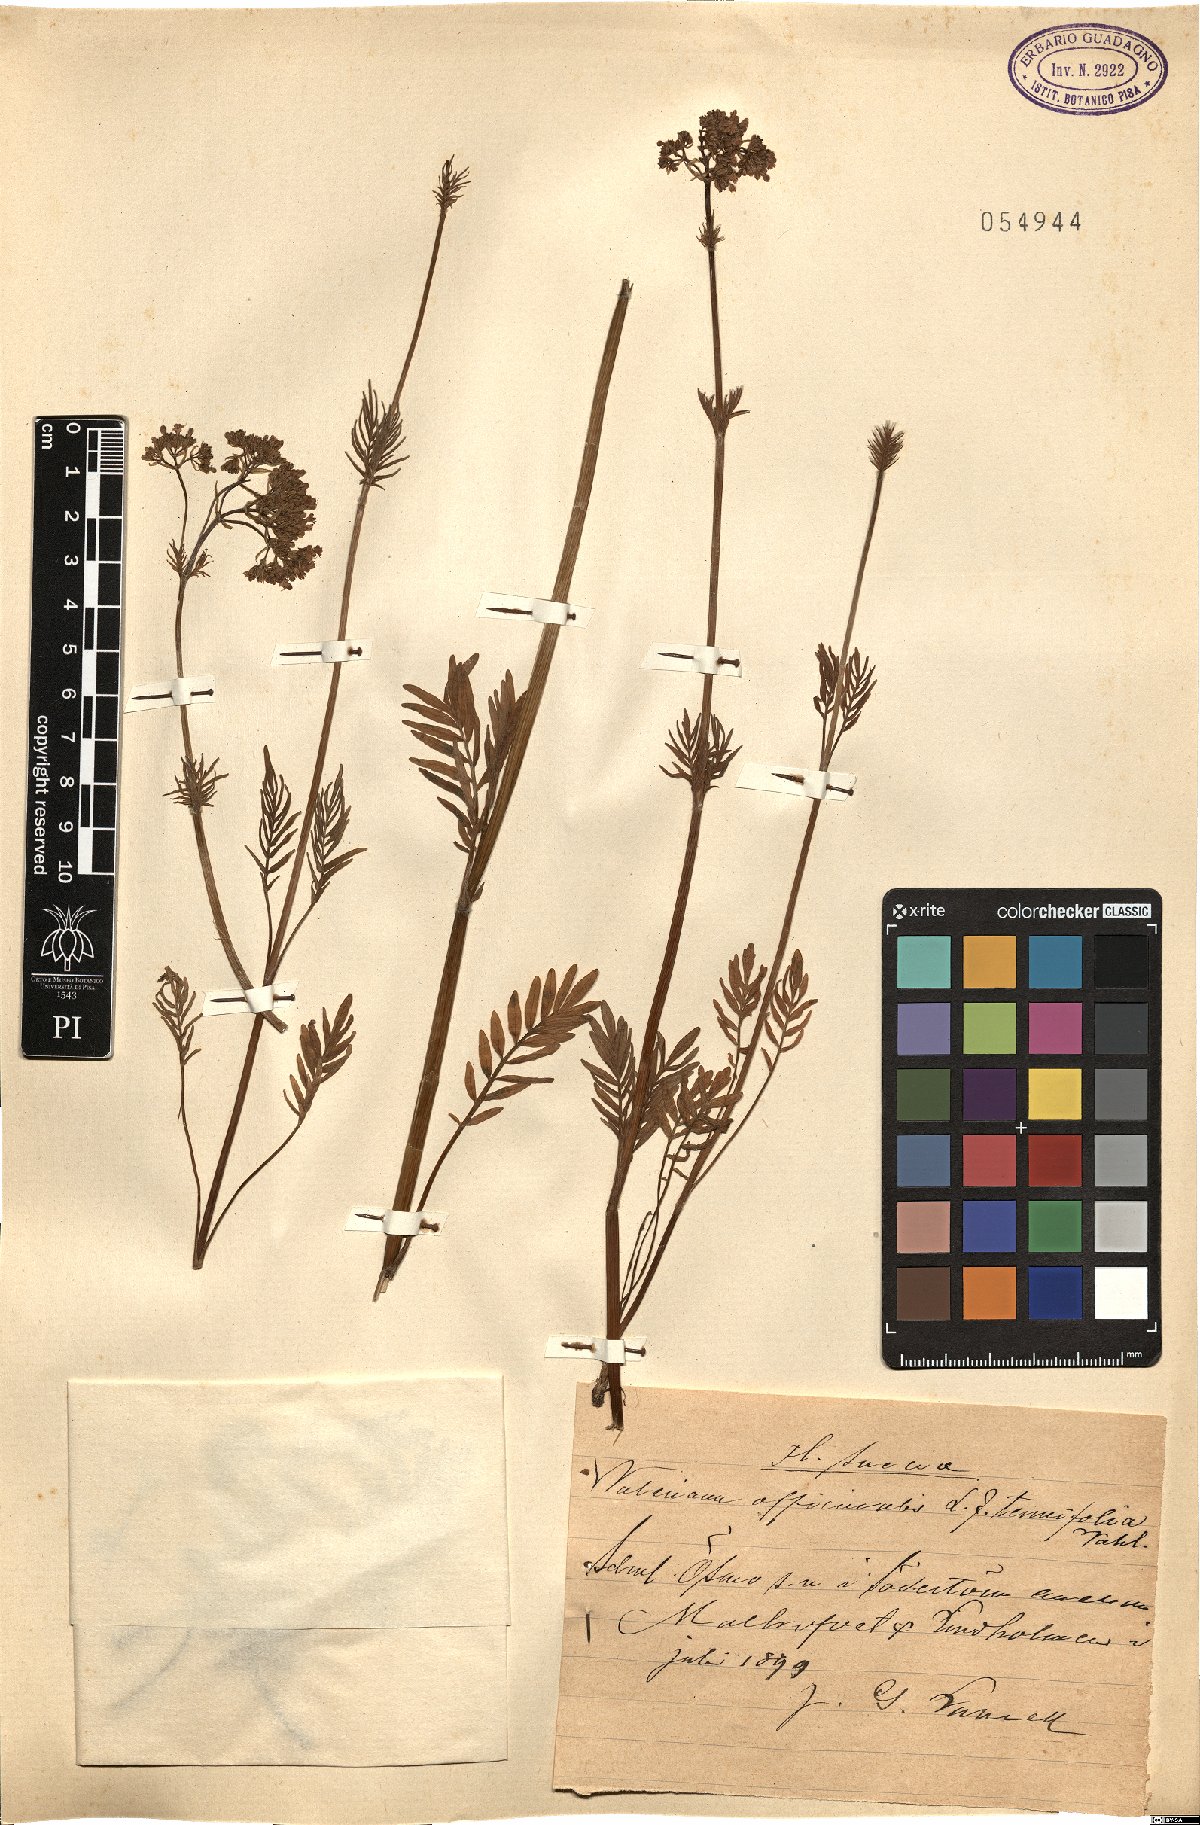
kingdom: Plantae
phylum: Tracheophyta
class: Magnoliopsida
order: Dipsacales
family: Caprifoliaceae
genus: Valeriana
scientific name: Valeriana officinalis
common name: Common valerian
